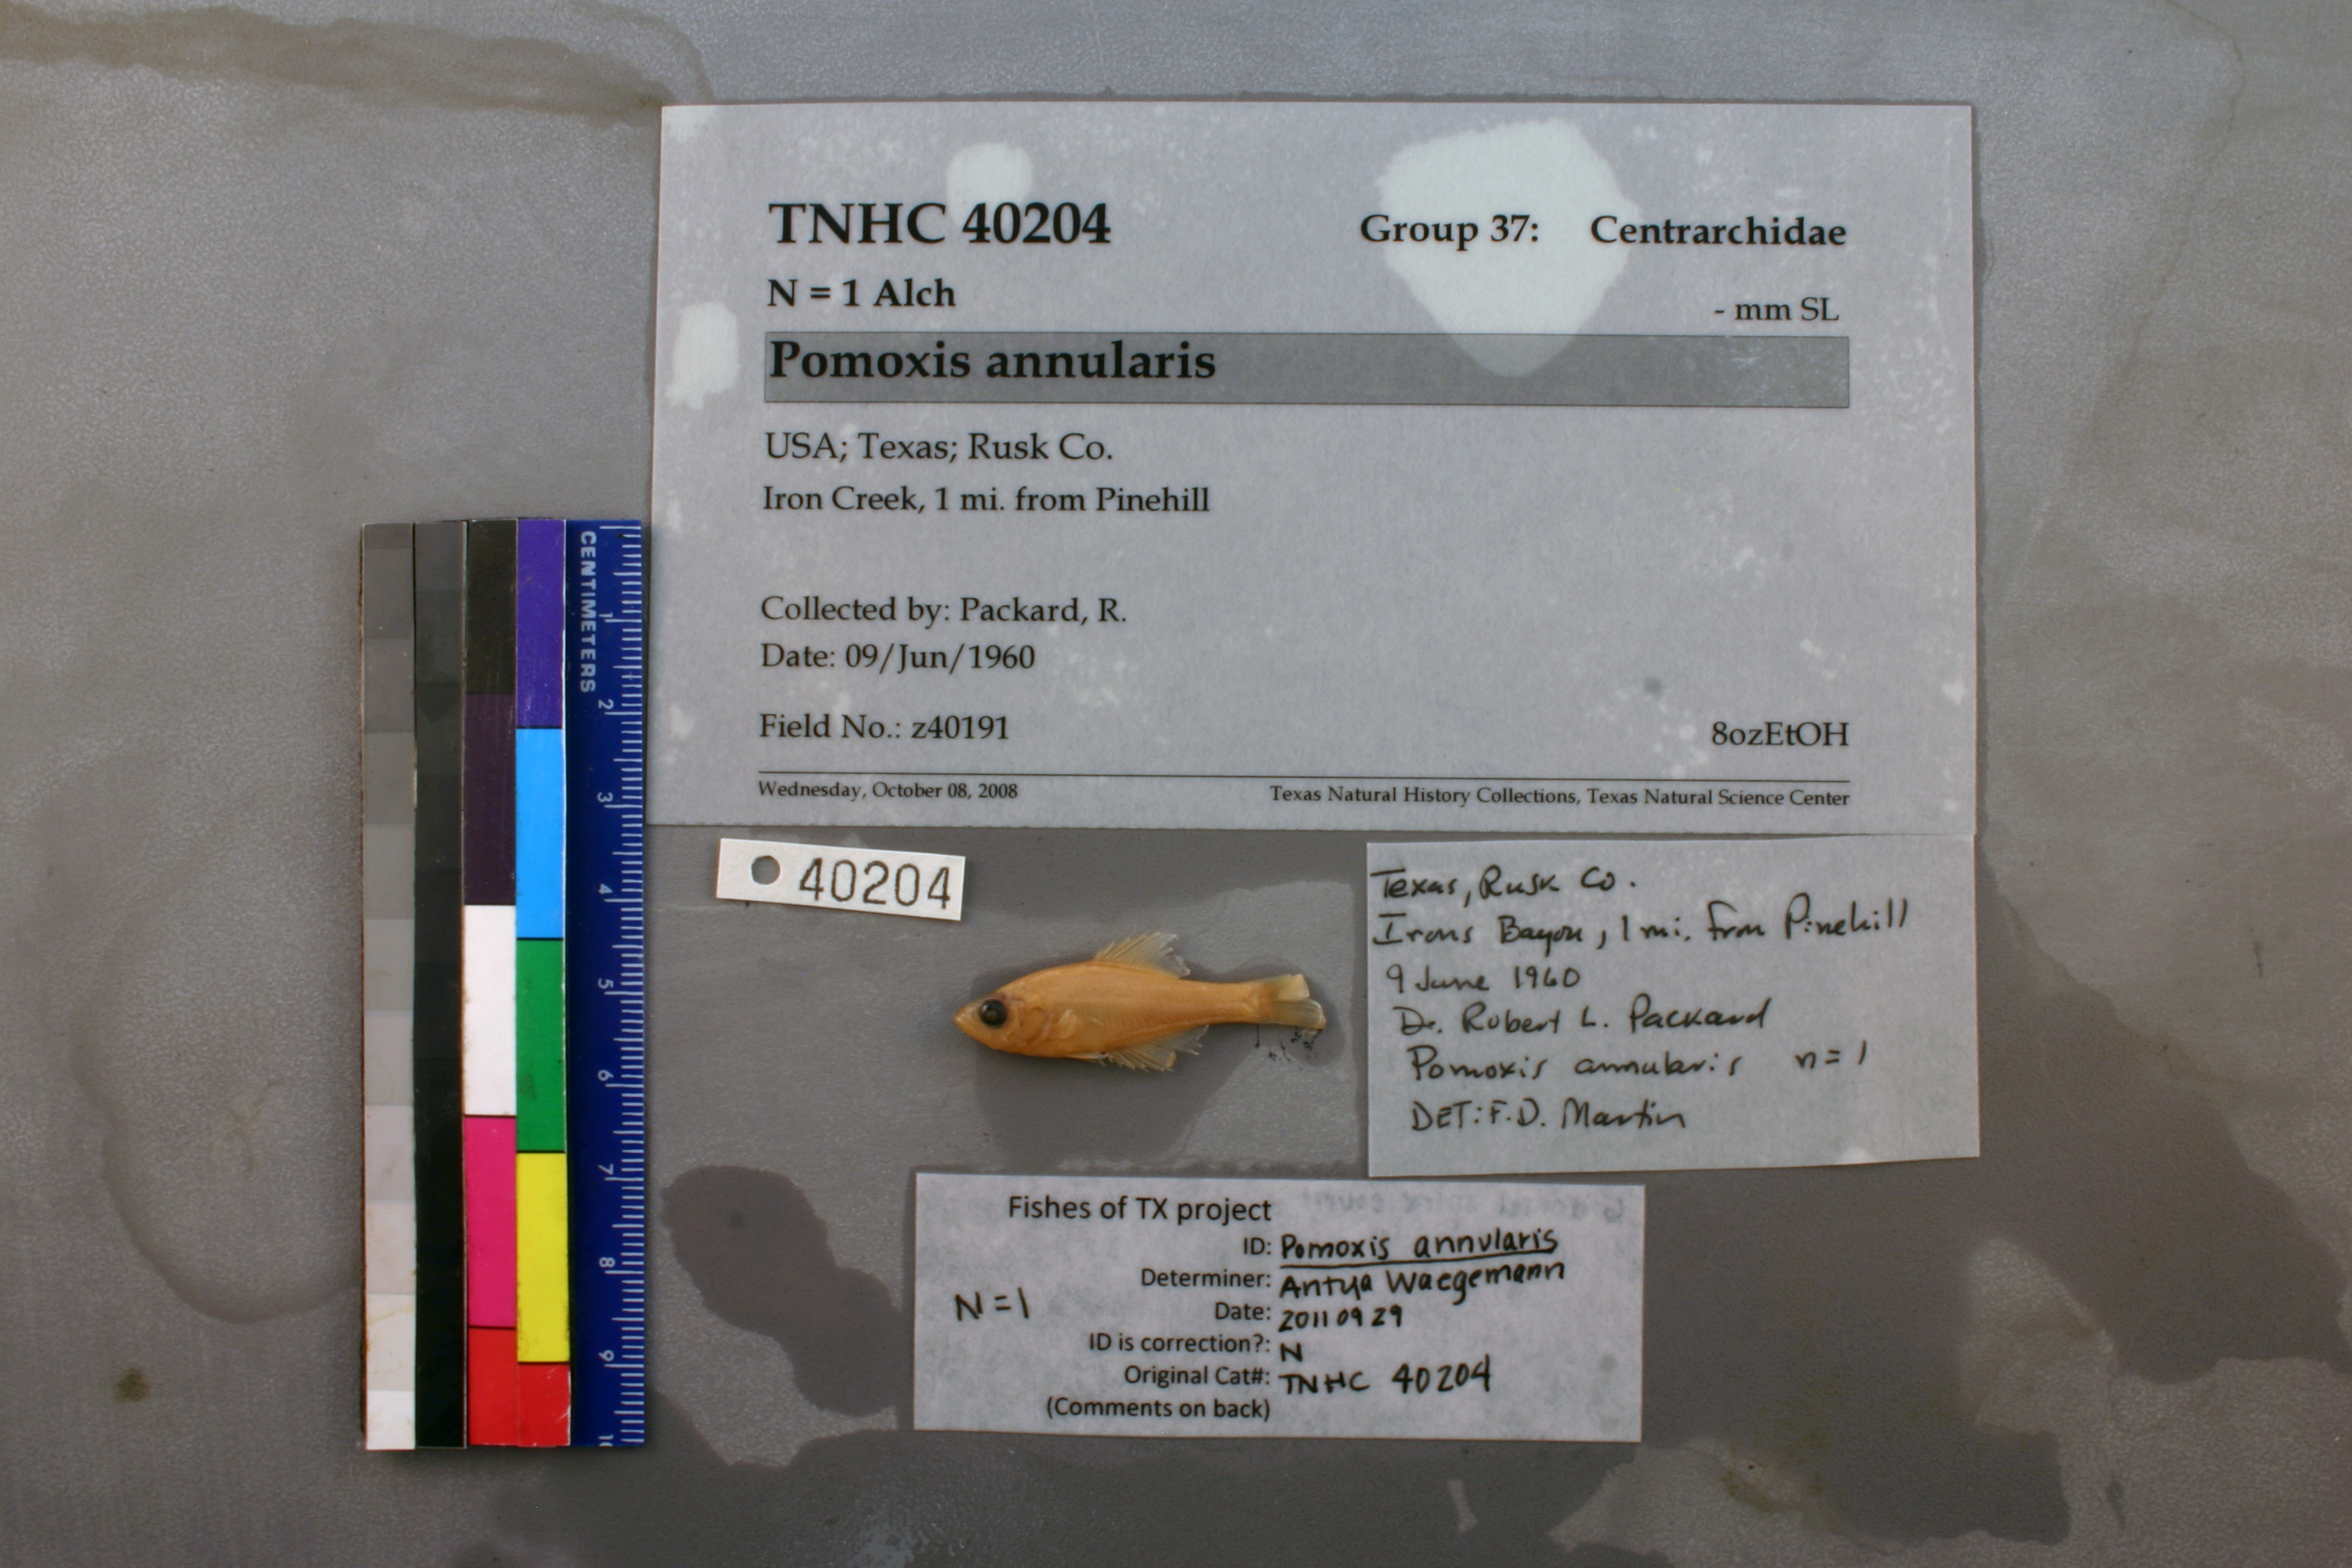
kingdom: Animalia
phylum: Chordata
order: Perciformes
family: Centrarchidae
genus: Pomoxis
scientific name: Pomoxis annularis
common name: White crappie
